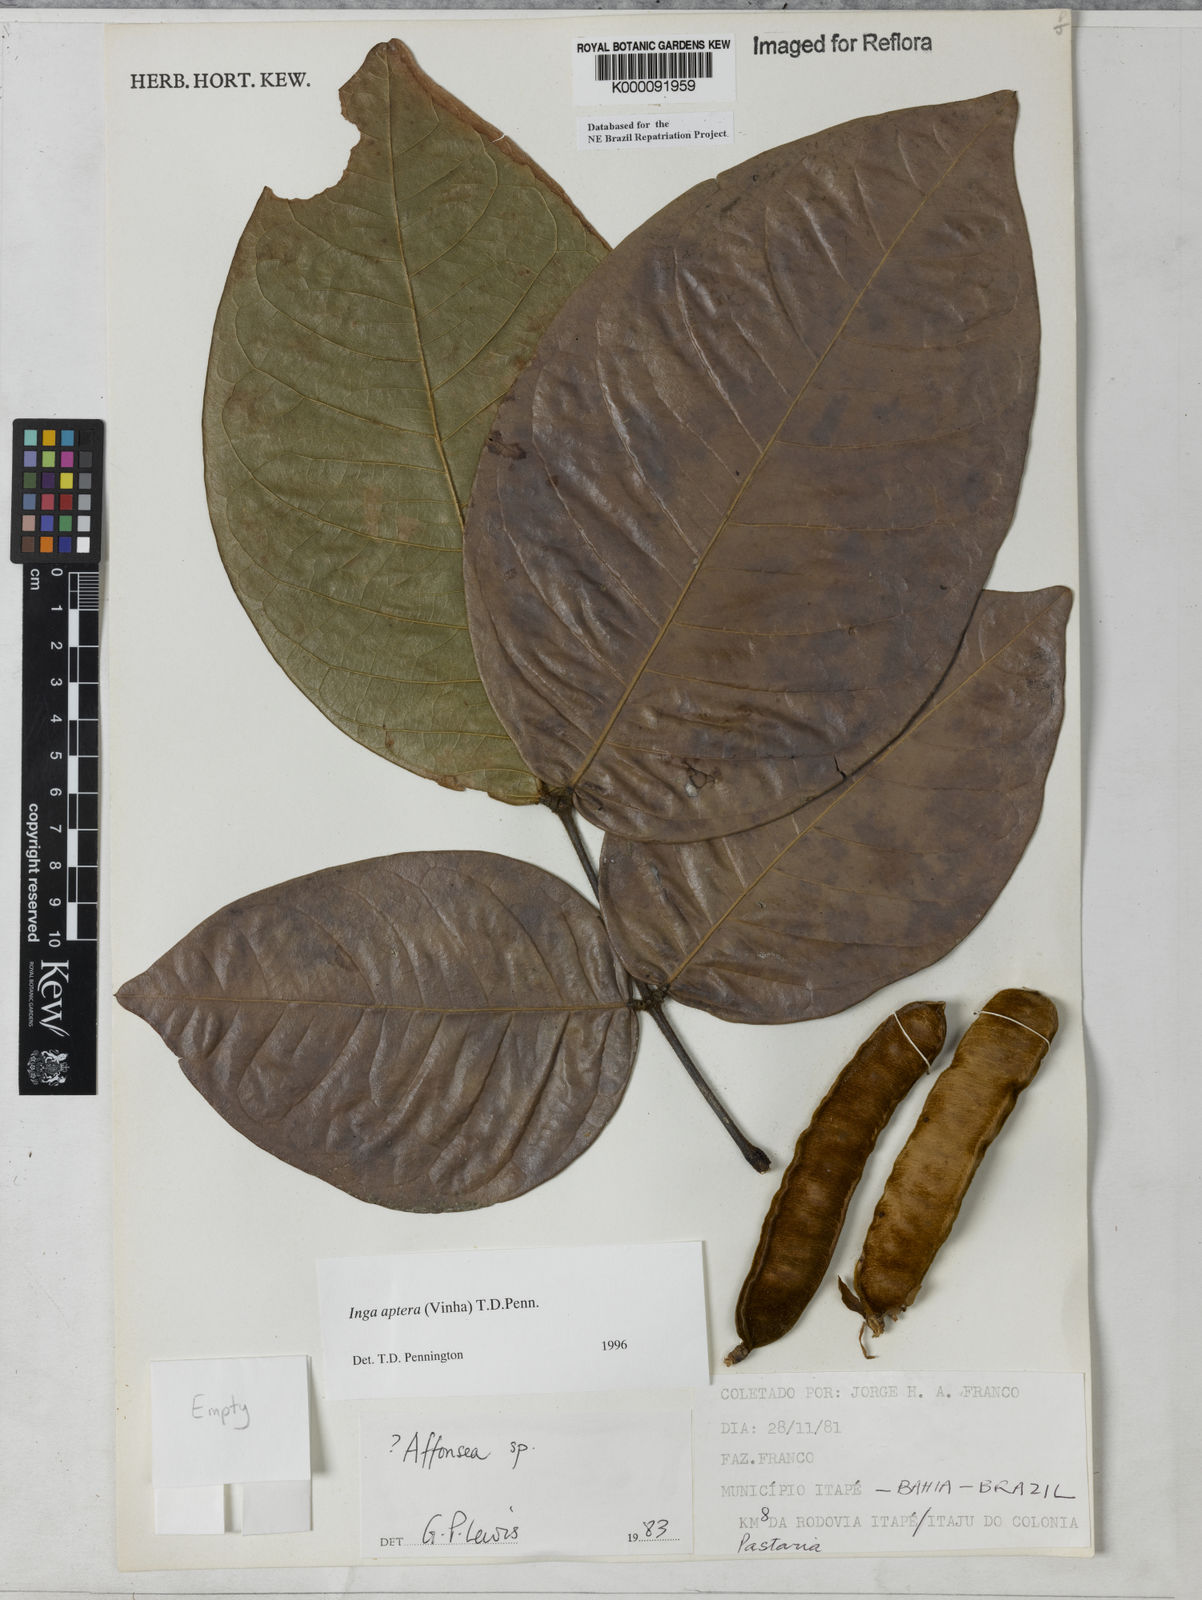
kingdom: Plantae
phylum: Tracheophyta
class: Magnoliopsida
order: Fabales
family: Fabaceae
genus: Inga
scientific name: Inga aptera
